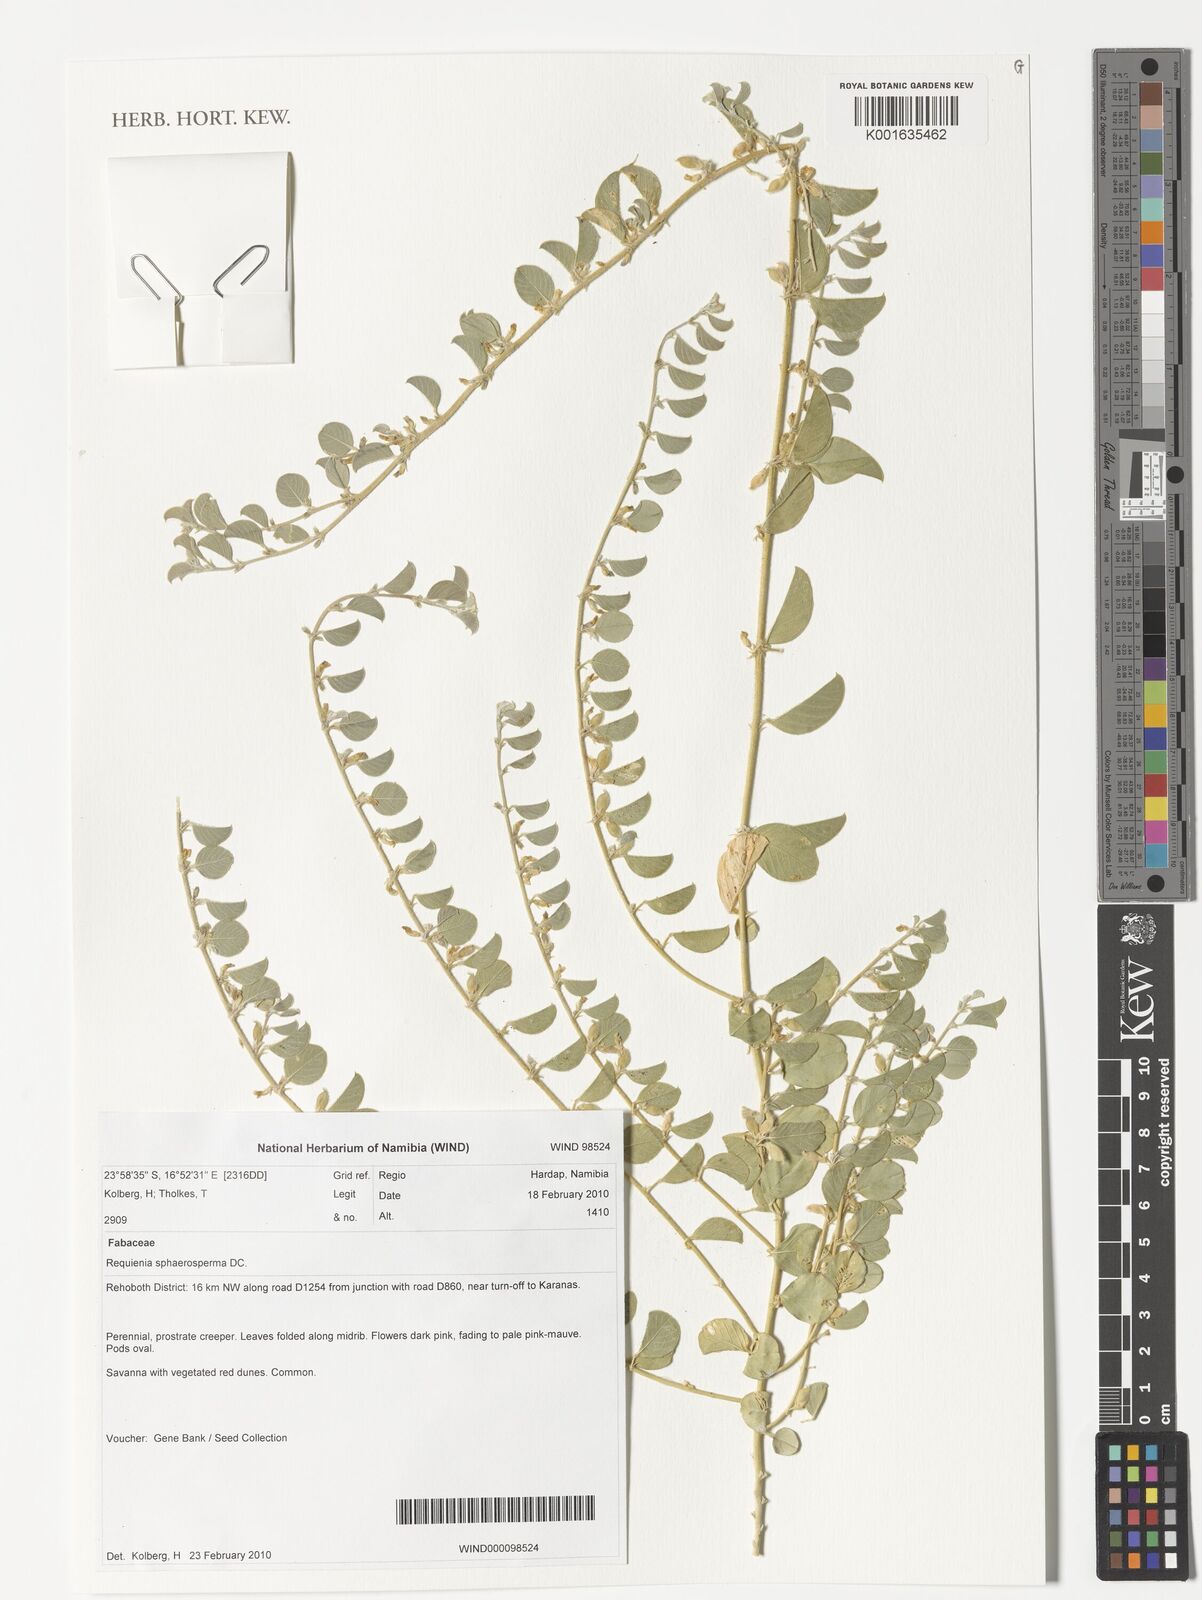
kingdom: Plantae
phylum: Tracheophyta
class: Magnoliopsida
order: Fabales
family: Fabaceae
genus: Requienia
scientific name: Requienia sphaerosperma
